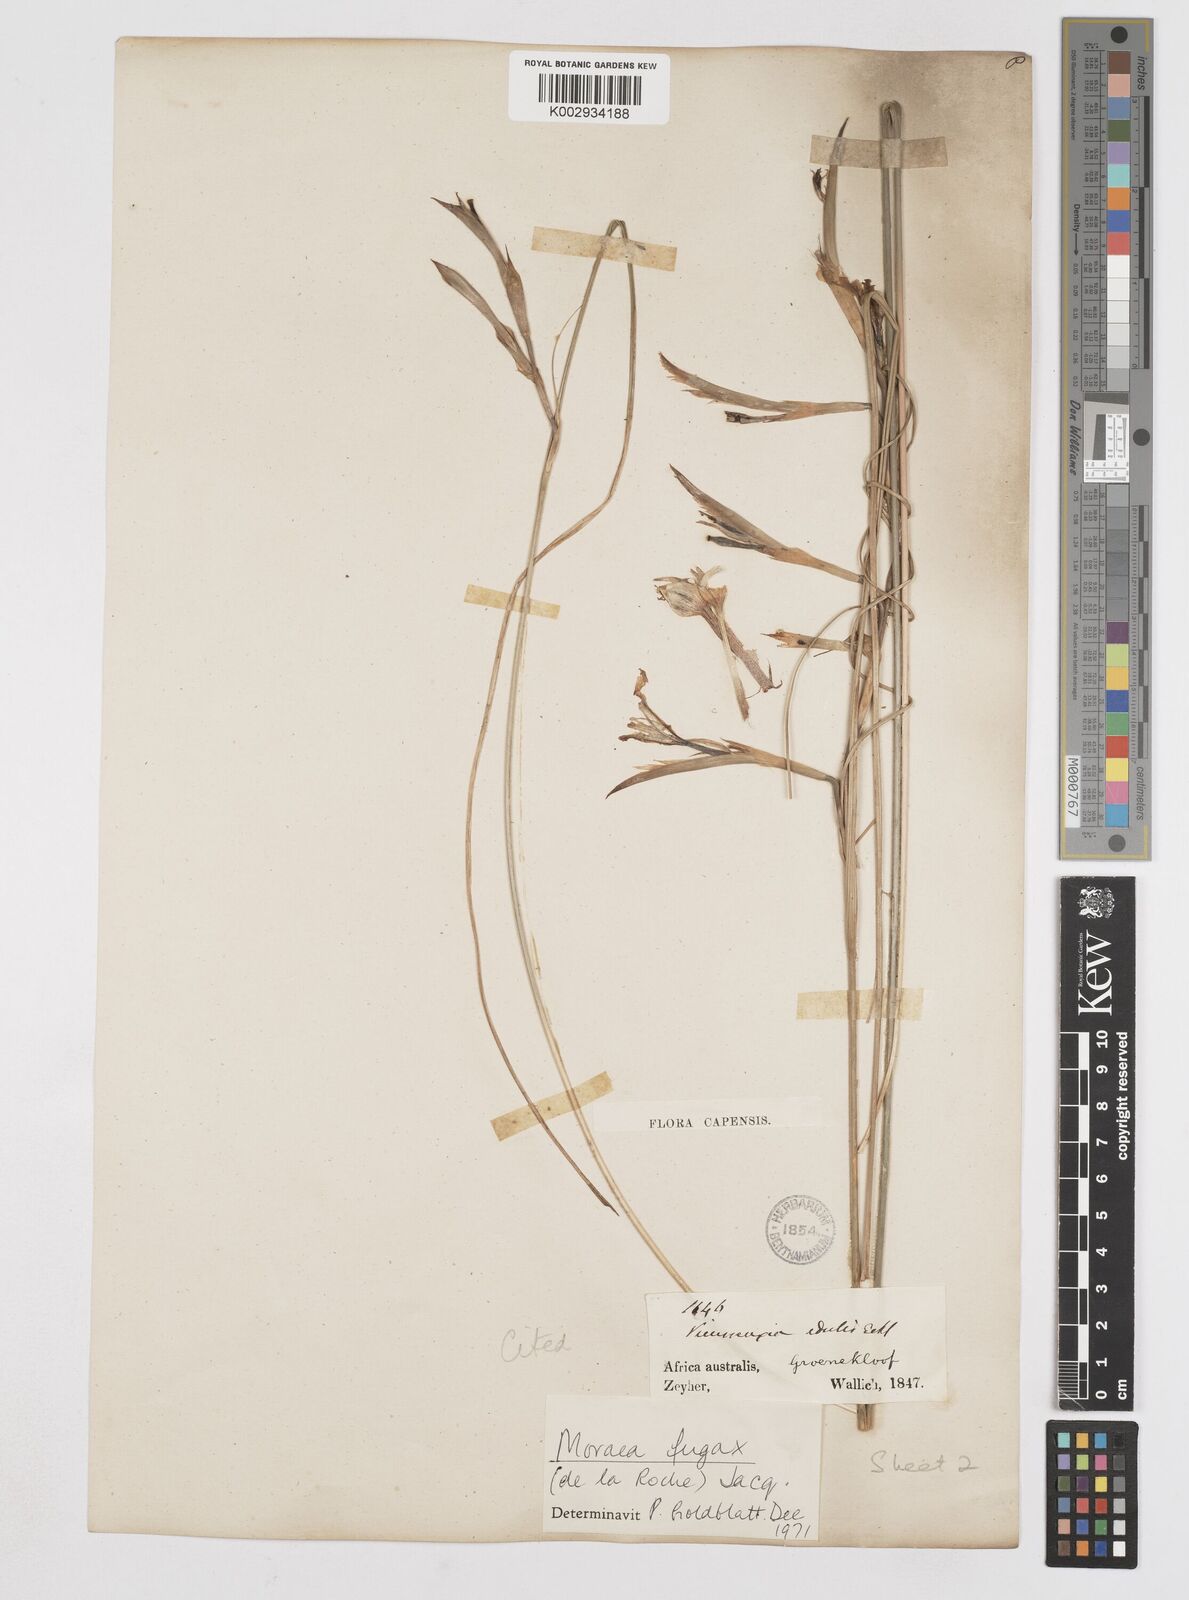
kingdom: Plantae
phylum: Tracheophyta
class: Liliopsida
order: Asparagales
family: Iridaceae
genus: Moraea
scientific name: Moraea fugax
